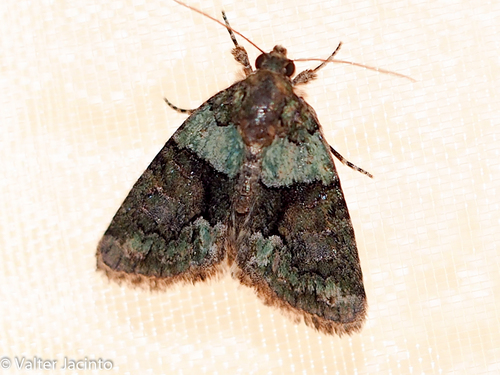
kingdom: Animalia
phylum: Arthropoda
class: Insecta
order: Lepidoptera
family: Noctuidae
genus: Cryphia
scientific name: Cryphia algae
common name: Tree-lichen beauty
